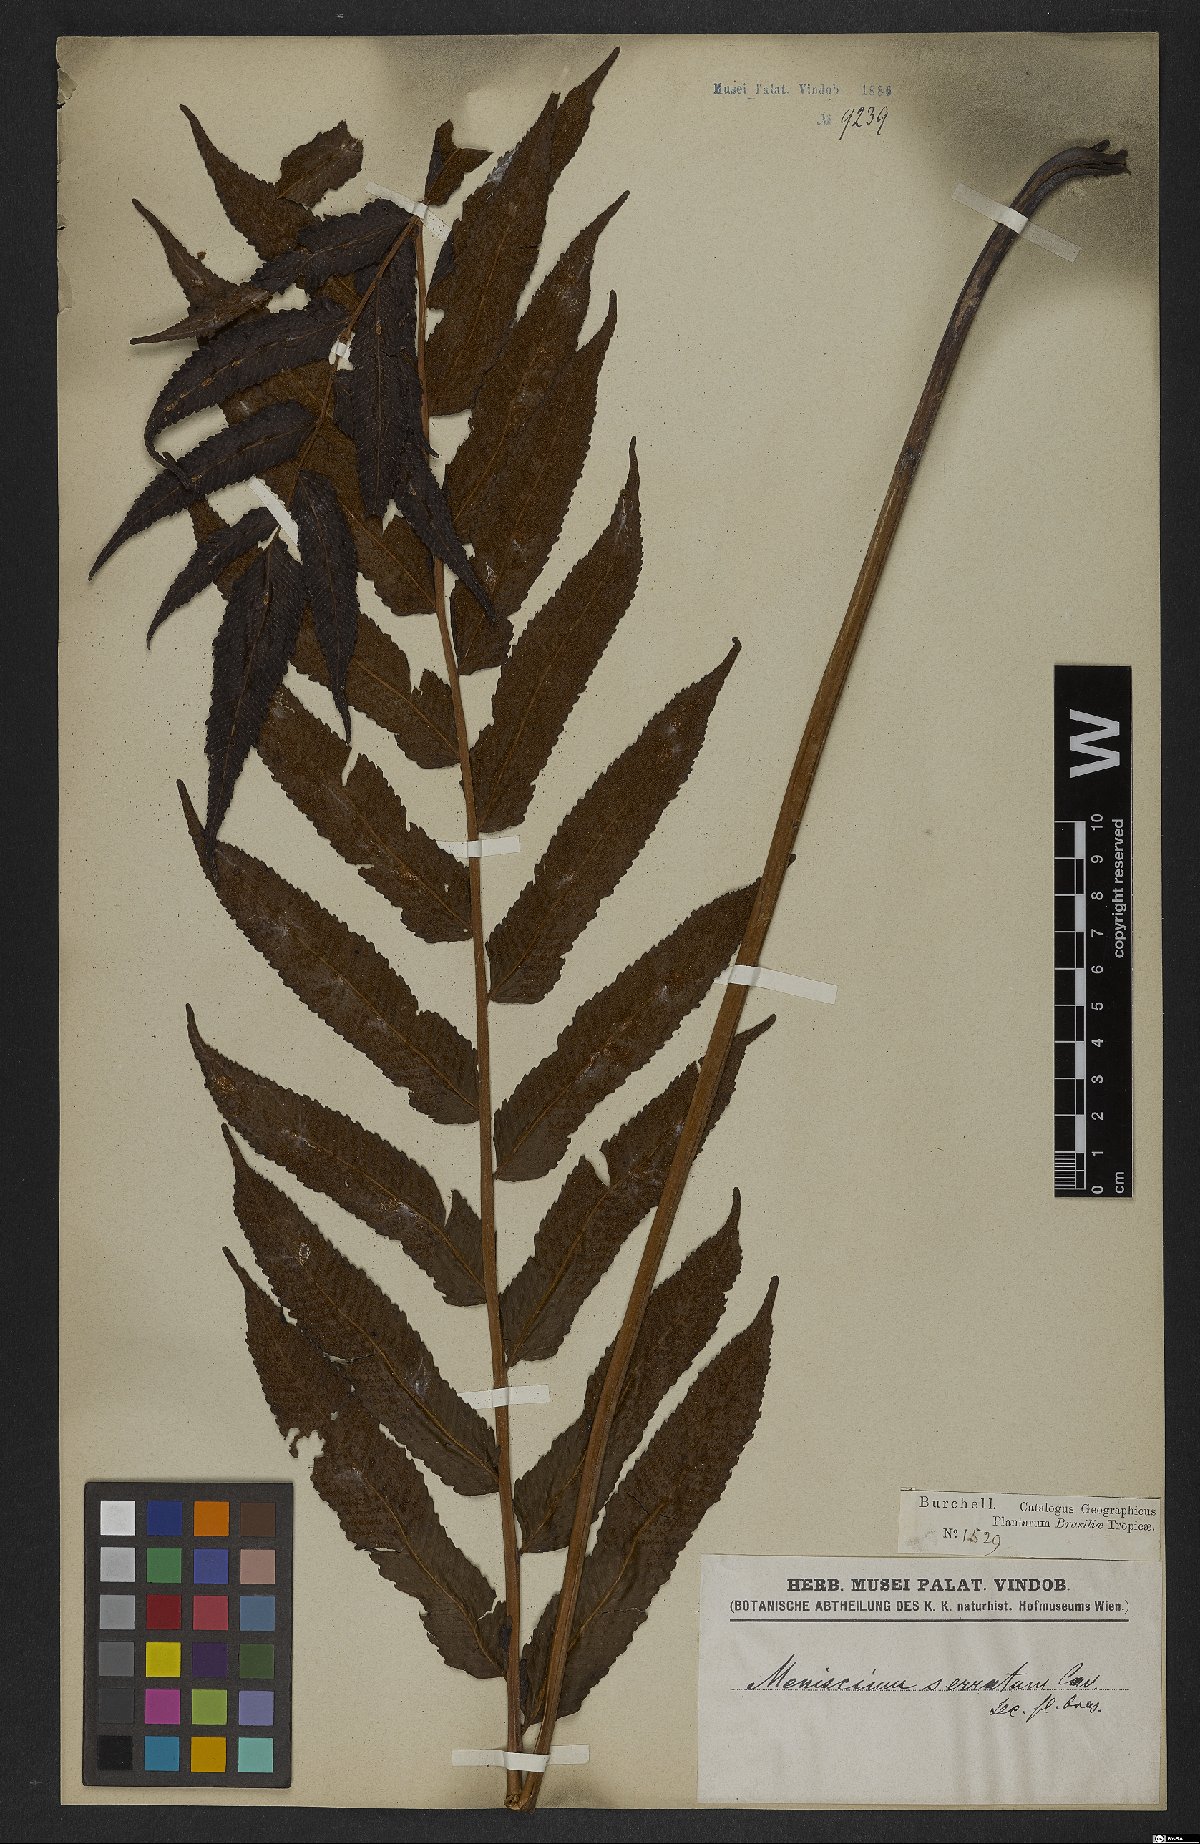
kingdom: Plantae
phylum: Tracheophyta
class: Polypodiopsida
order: Polypodiales
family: Thelypteridaceae
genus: Meniscium
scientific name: Meniscium serratum
